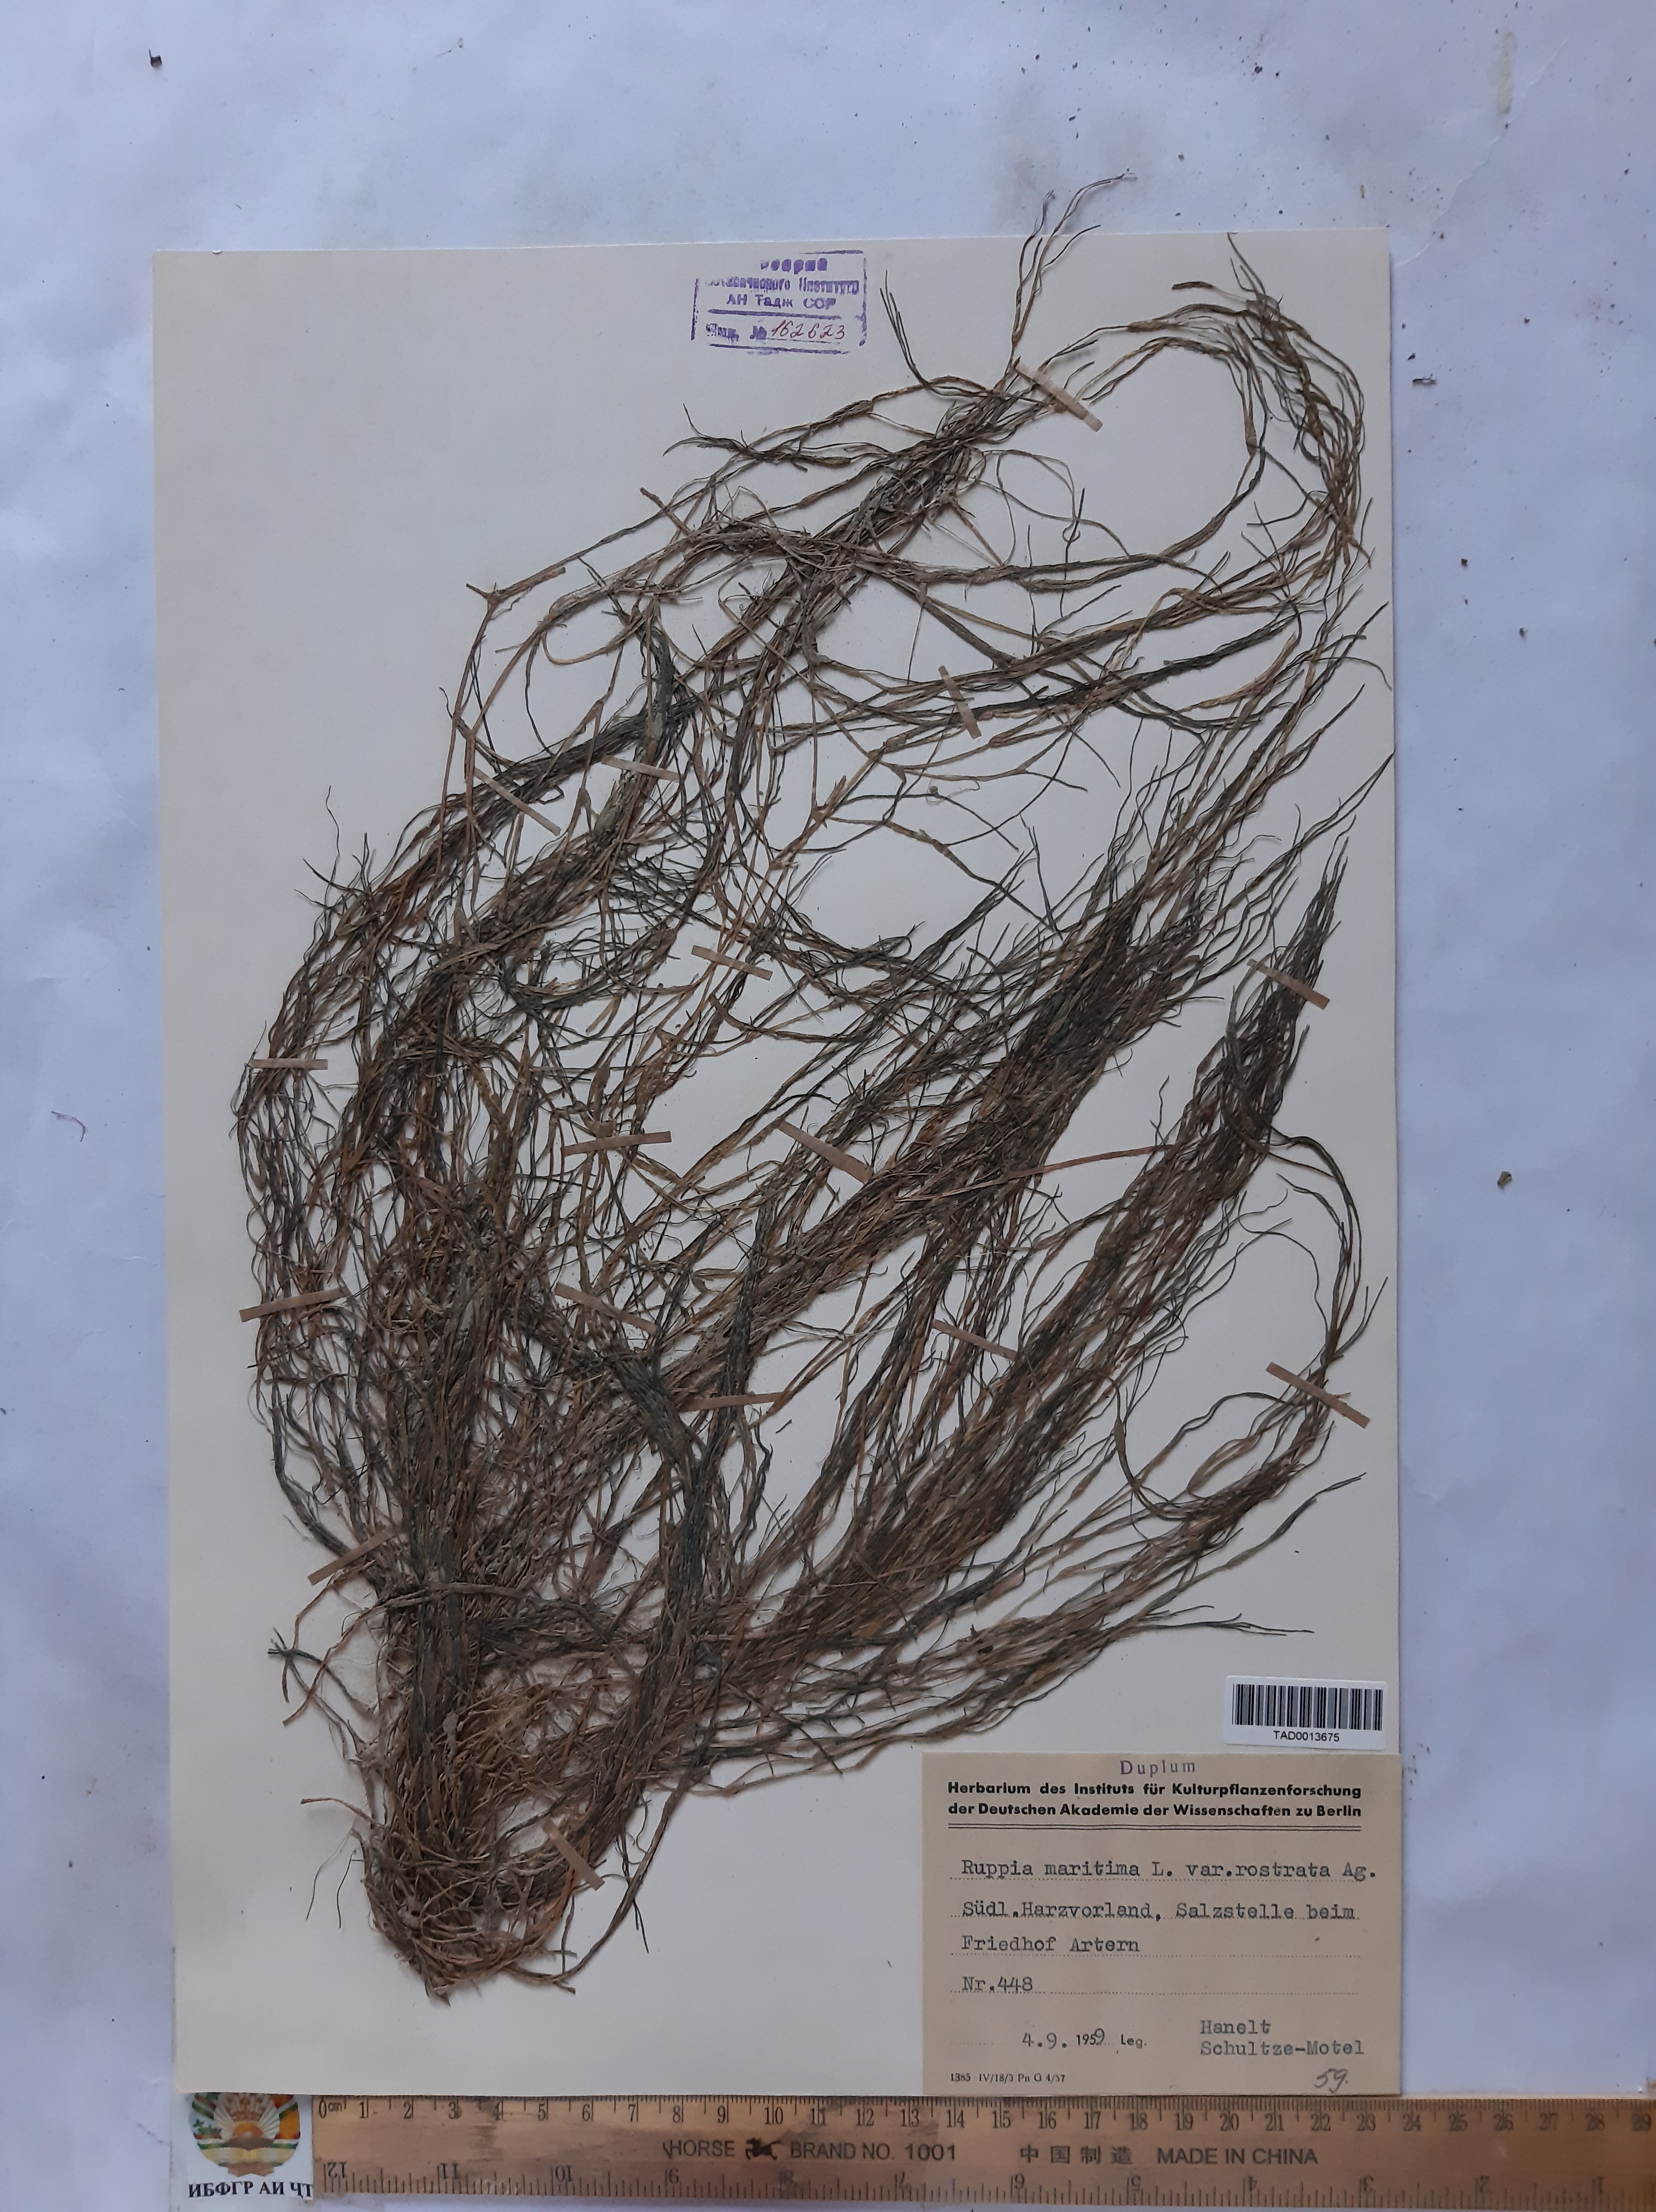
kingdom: Plantae
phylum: Tracheophyta
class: Liliopsida
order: Alismatales
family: Ruppiaceae
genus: Ruppia
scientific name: Ruppia maritima
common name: Beaked tasselweed
